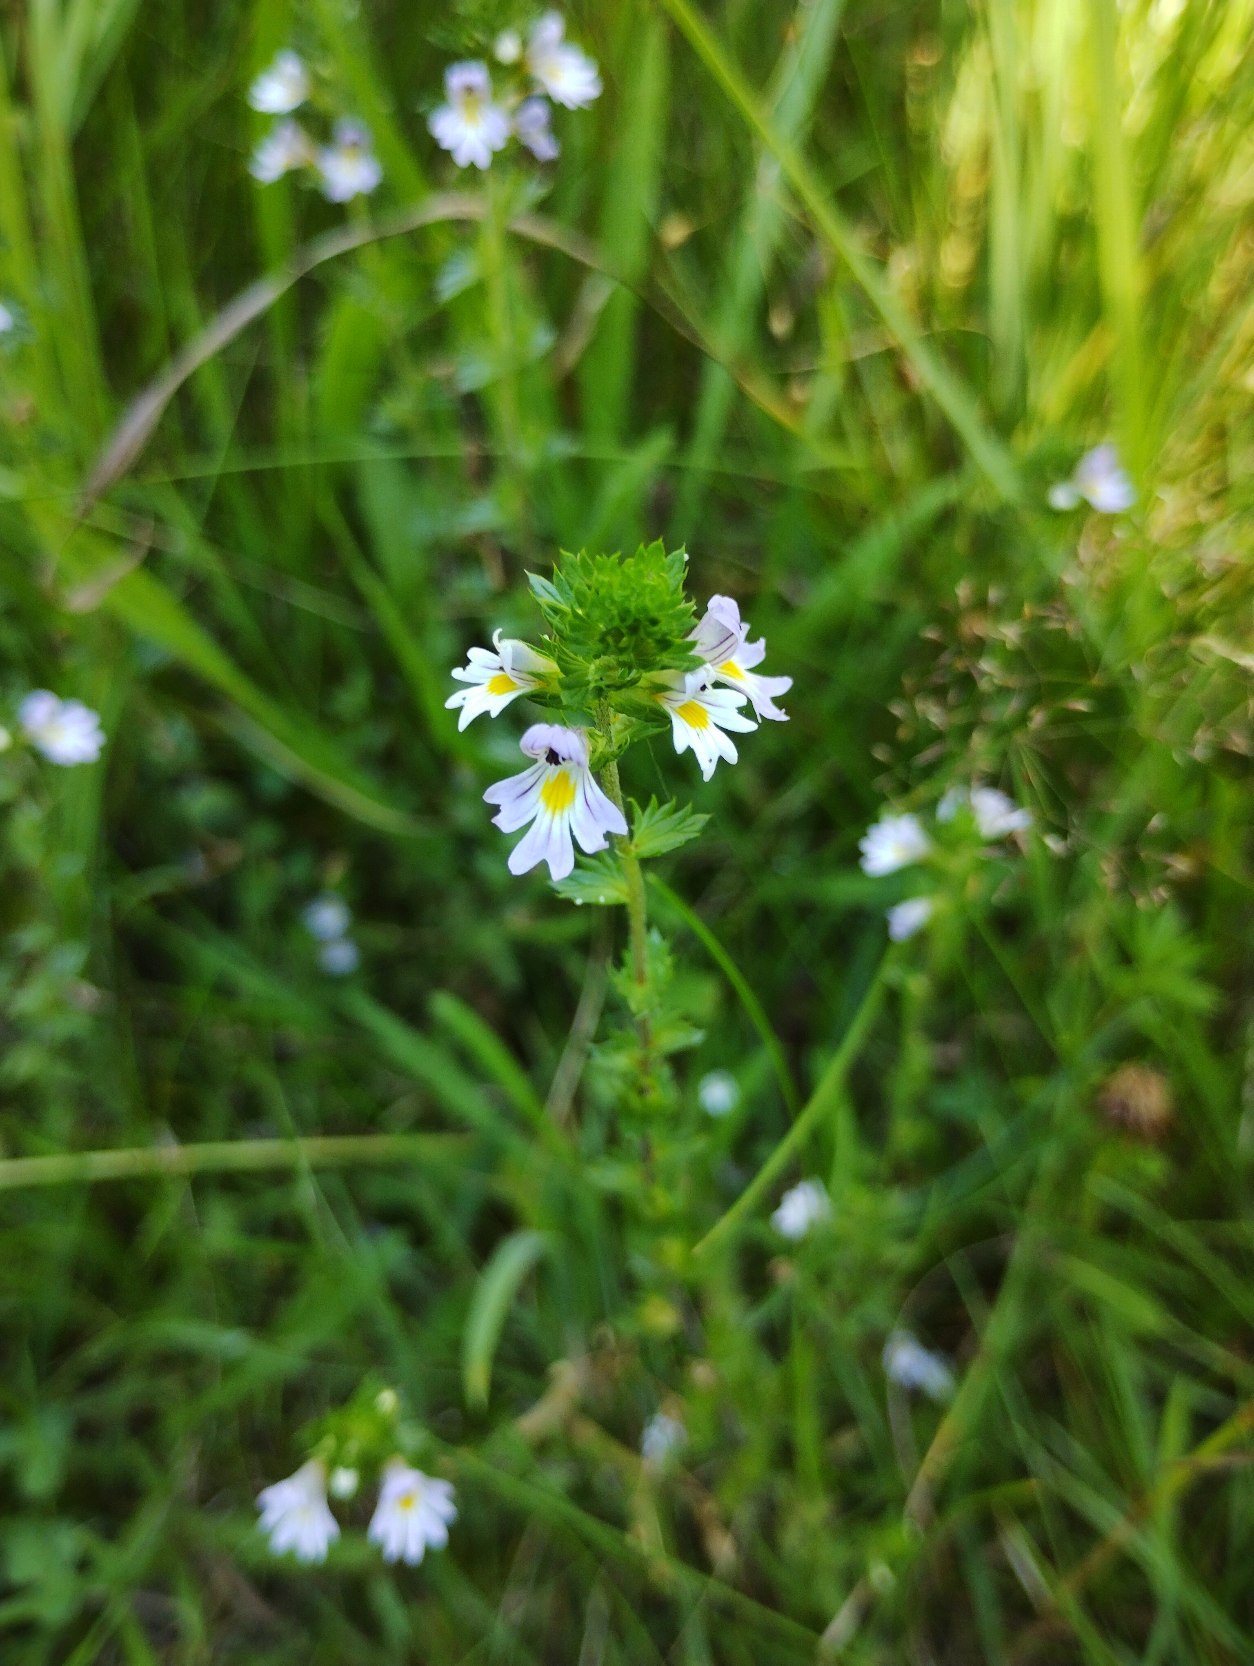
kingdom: Plantae
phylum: Tracheophyta
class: Magnoliopsida
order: Lamiales
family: Orobanchaceae
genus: Euphrasia
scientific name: Euphrasia stricta
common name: Spids øjentrøst
